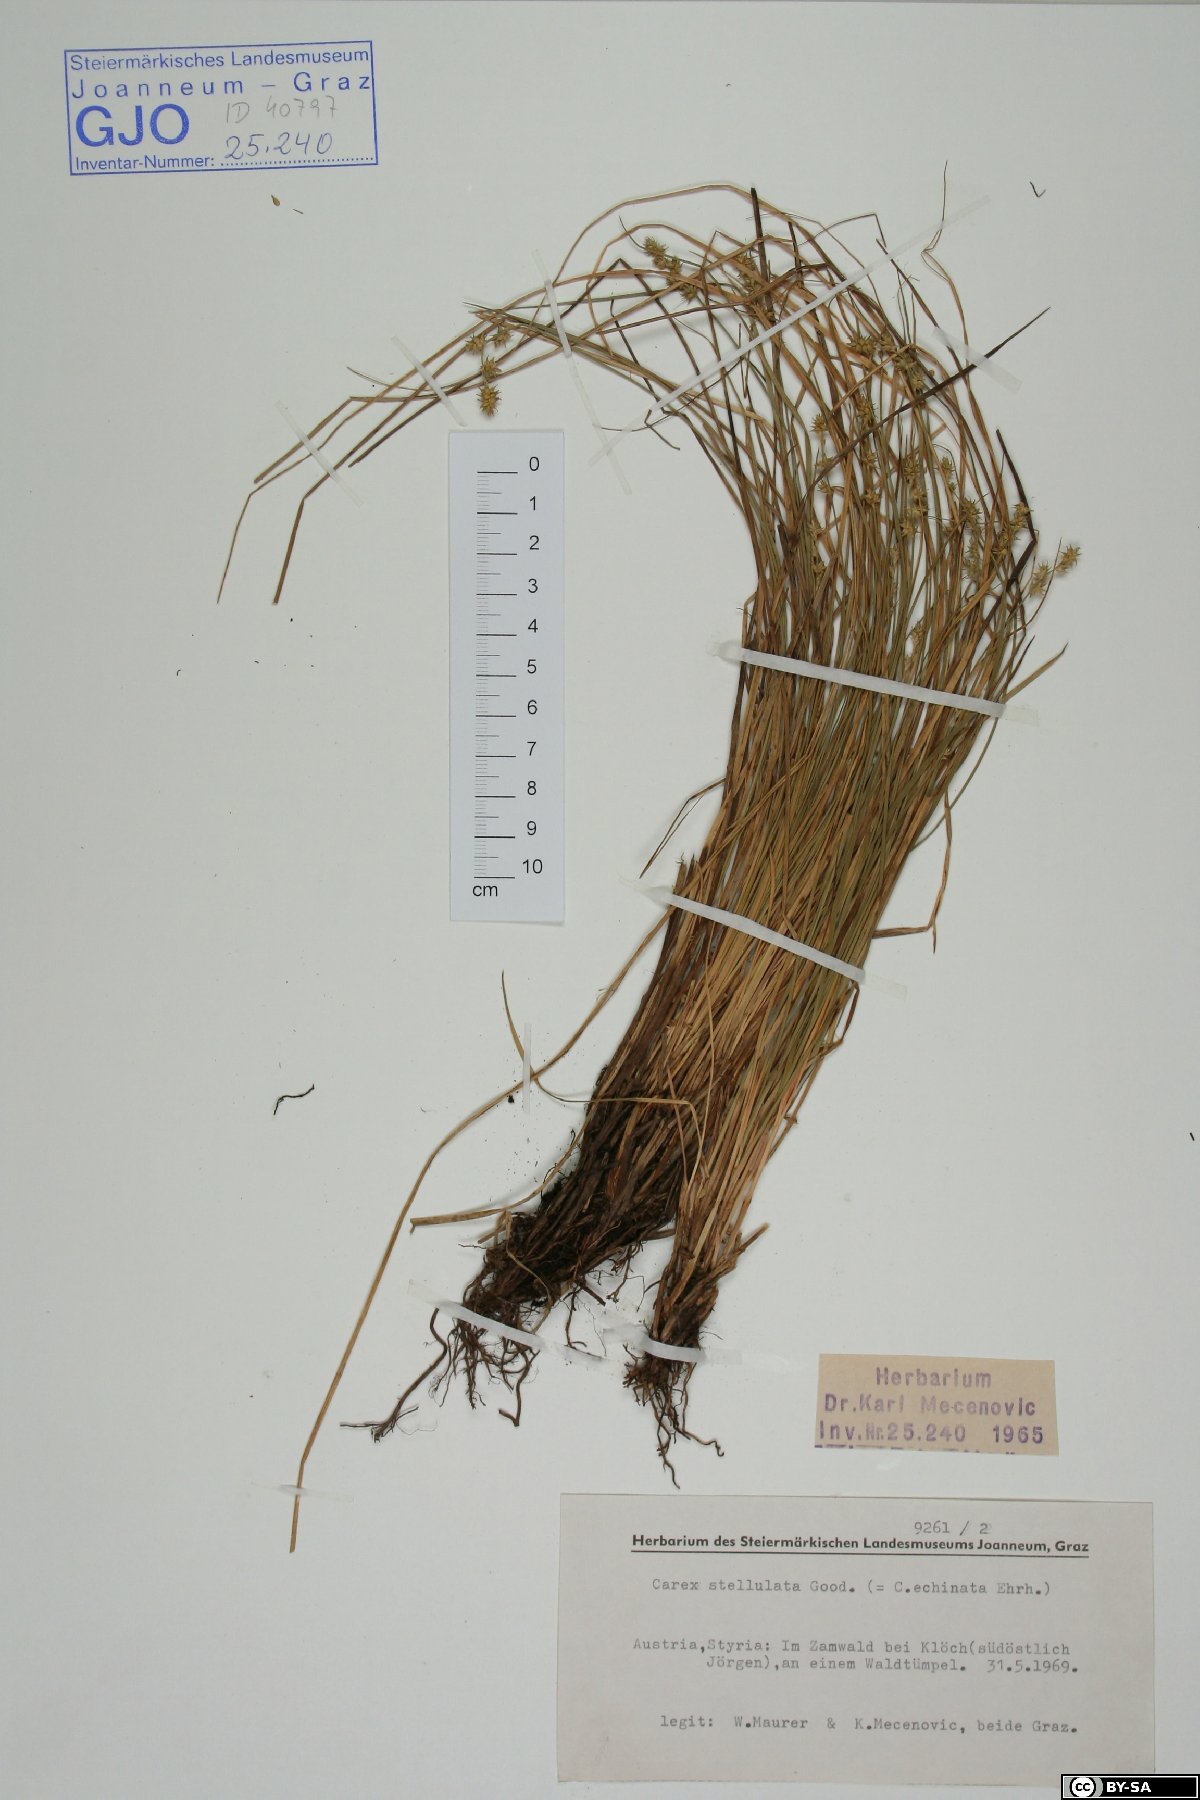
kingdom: Plantae
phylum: Tracheophyta
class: Liliopsida
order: Poales
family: Cyperaceae
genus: Carex
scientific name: Carex echinata
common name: Star sedge
